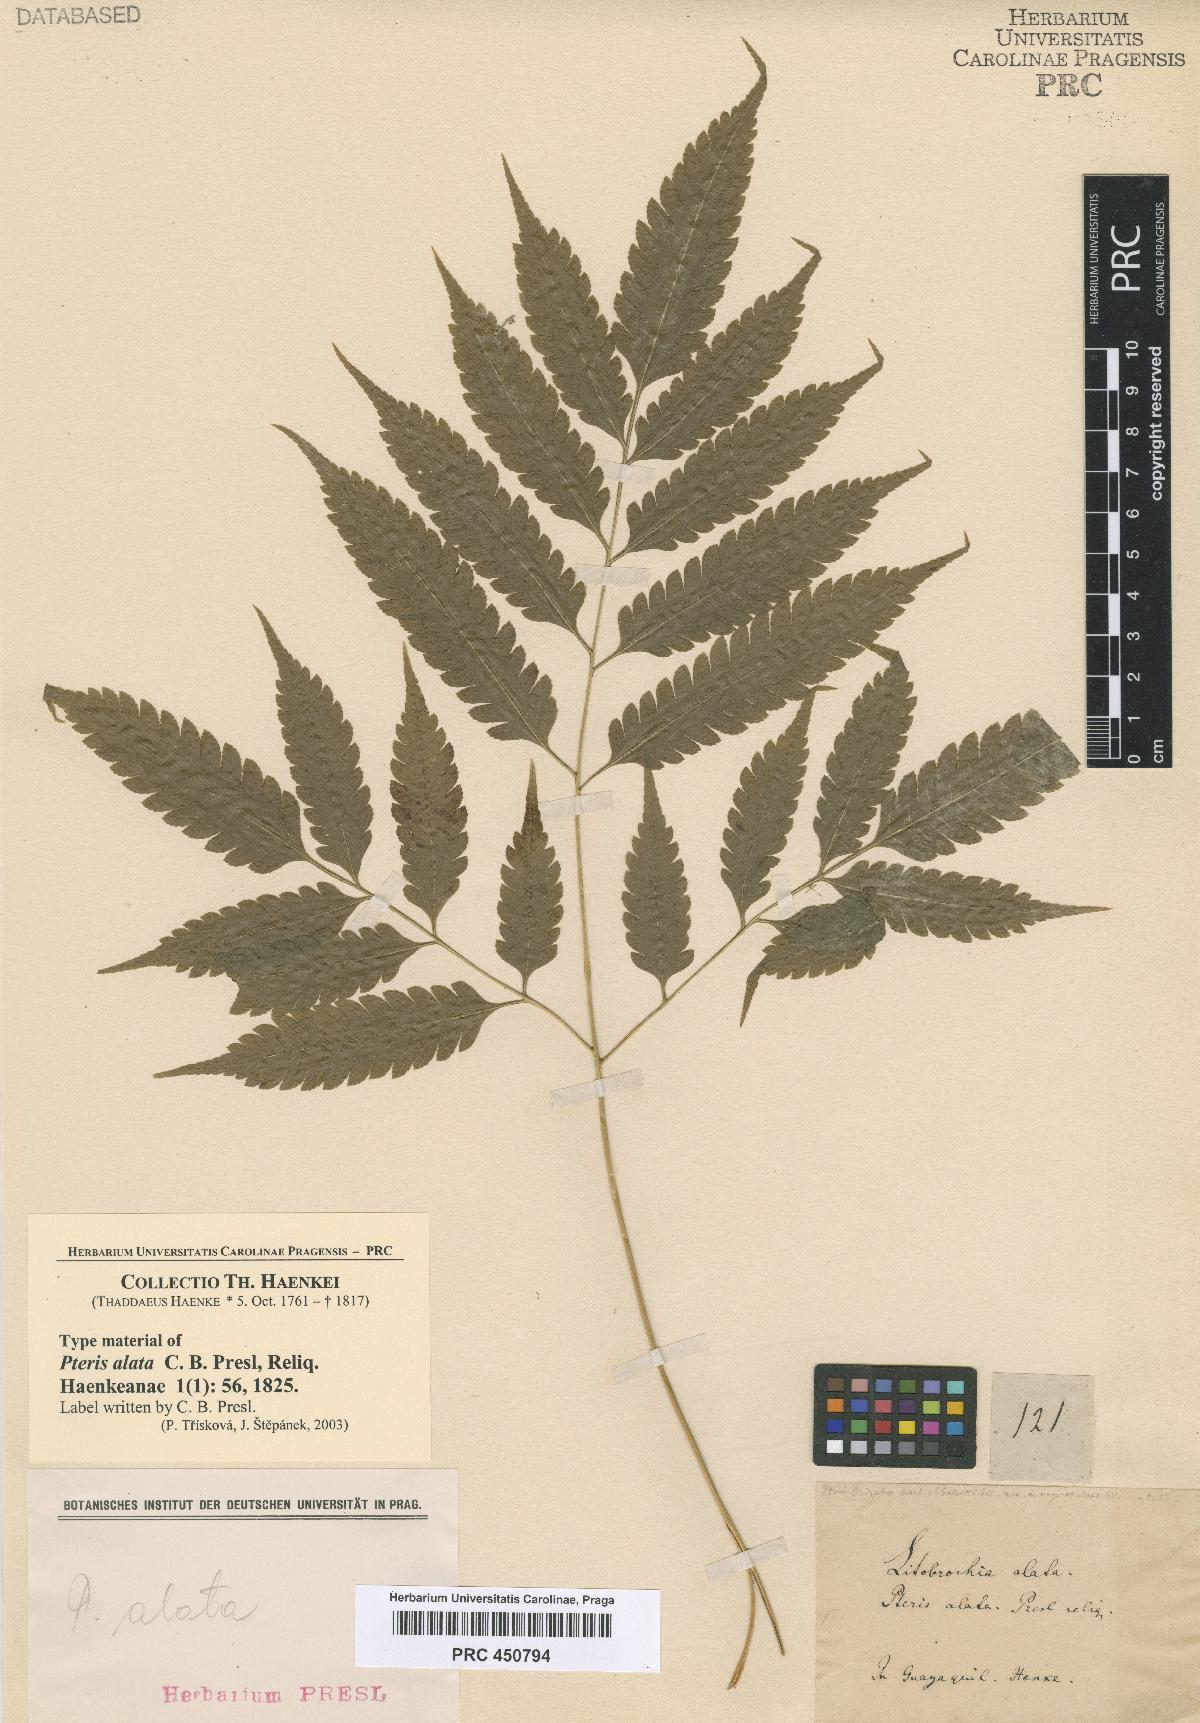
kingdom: Plantae
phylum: Tracheophyta
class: Polypodiopsida
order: Polypodiales
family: Pteridaceae
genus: Pteris
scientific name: Pteris Litobrochia alata
